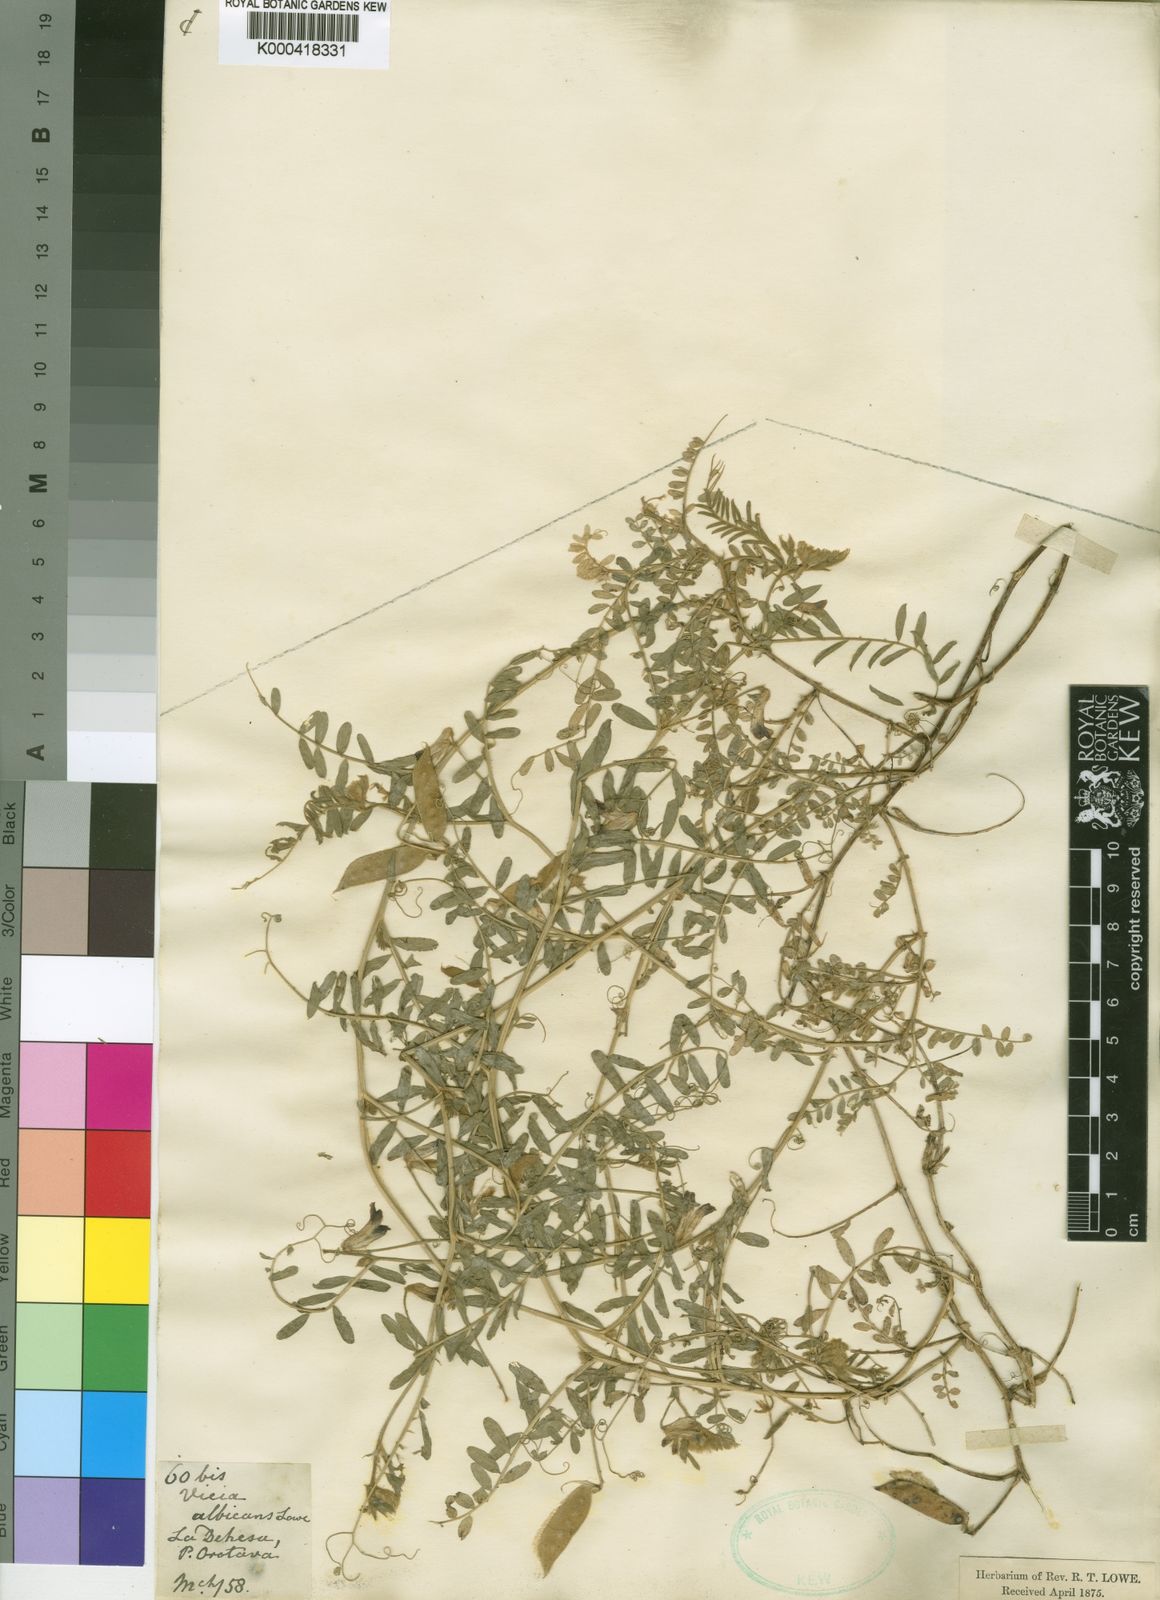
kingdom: Plantae
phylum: Tracheophyta
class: Magnoliopsida
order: Fabales
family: Fabaceae
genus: Vicia
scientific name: Vicia benghalensis
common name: Purple vetch
